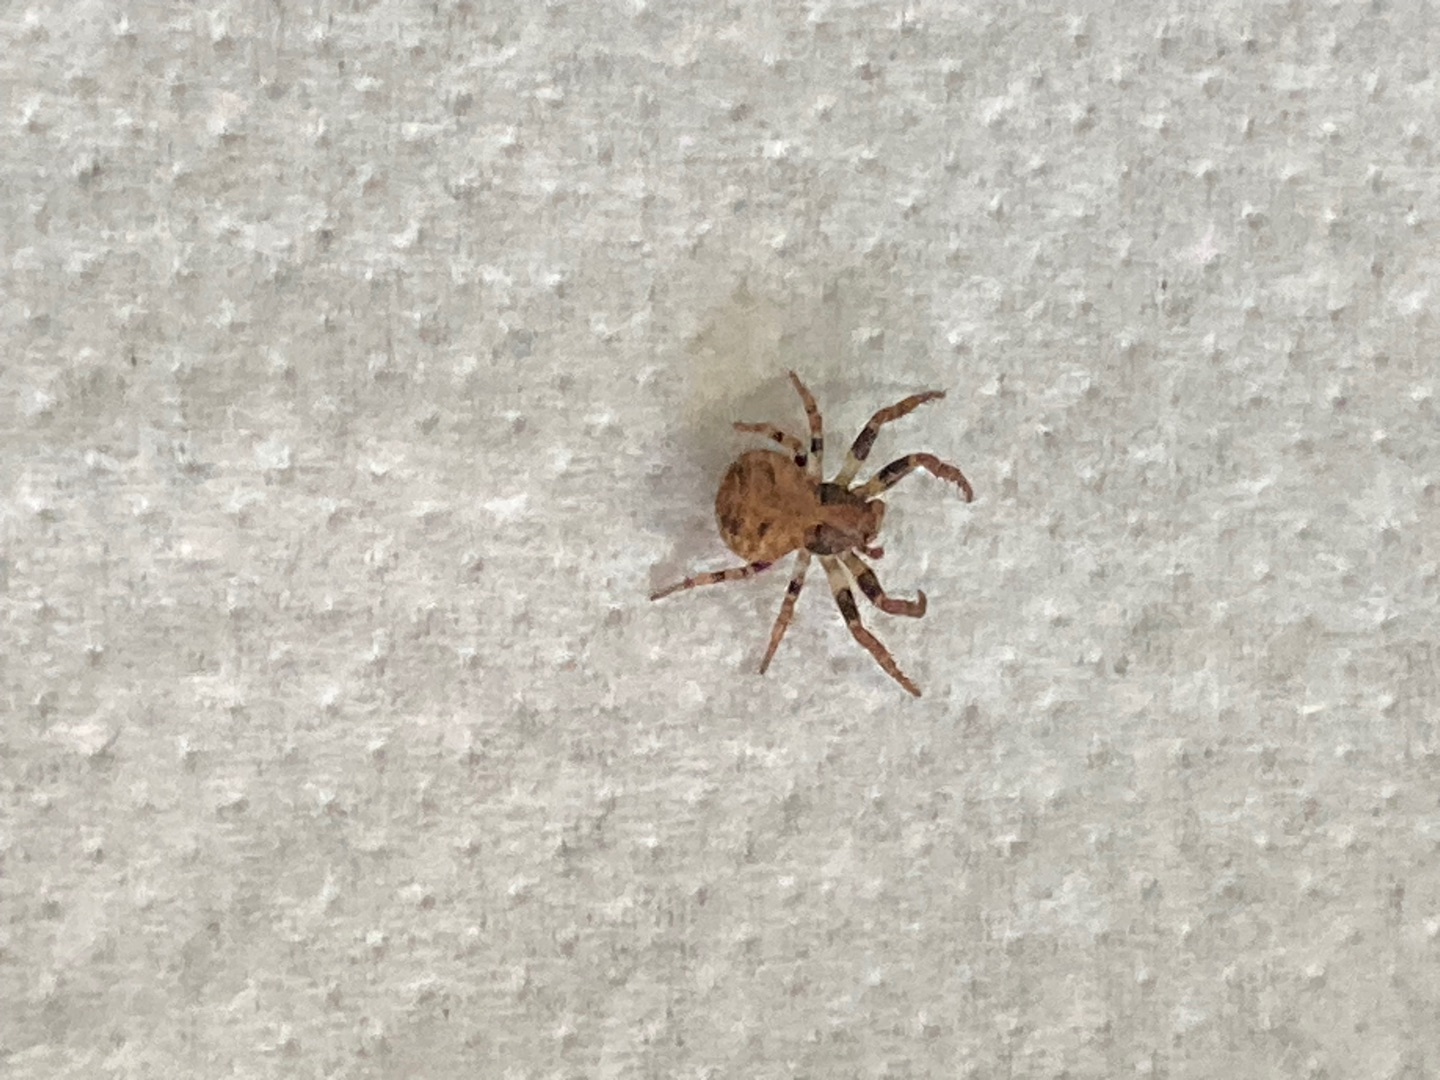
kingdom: Animalia
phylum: Arthropoda
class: Arachnida
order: Araneae
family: Thomisidae
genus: Ozyptila
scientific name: Ozyptila praticola
